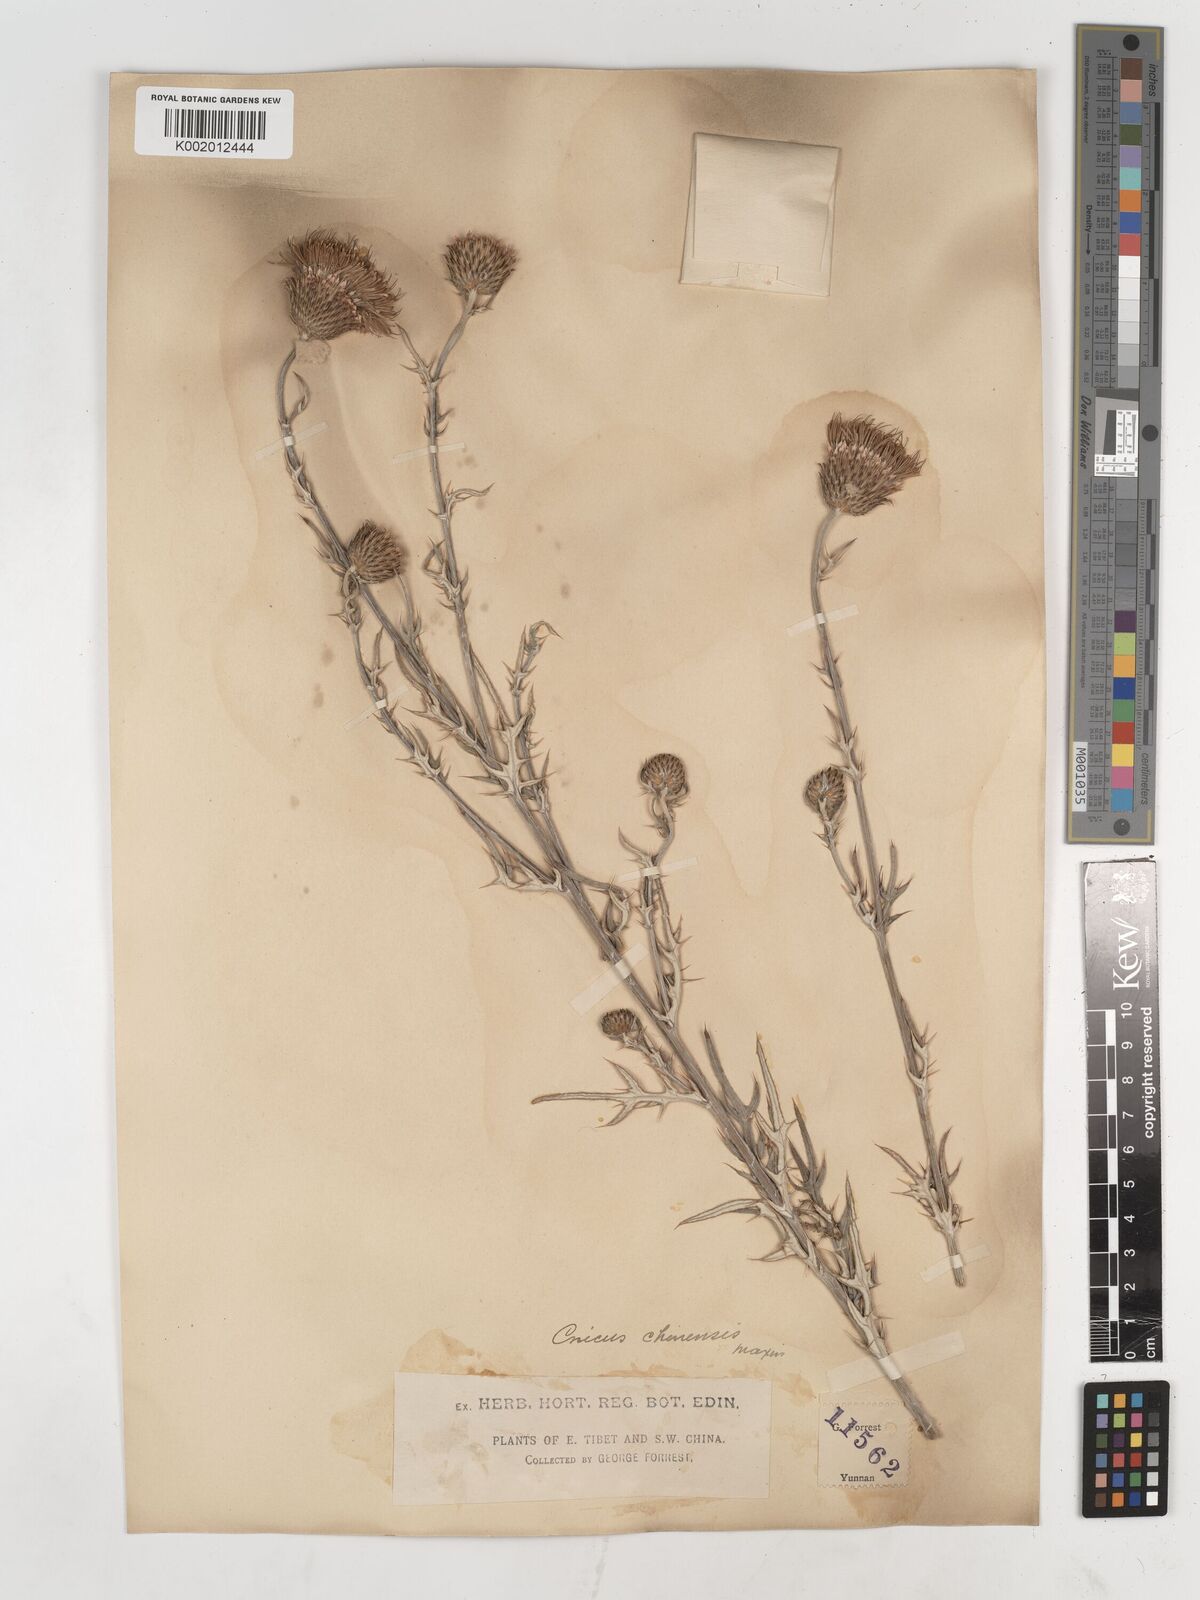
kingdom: Plantae
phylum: Tracheophyta
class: Magnoliopsida
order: Asterales
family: Asteraceae
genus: Lophiolepis
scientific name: Lophiolepis veruta
